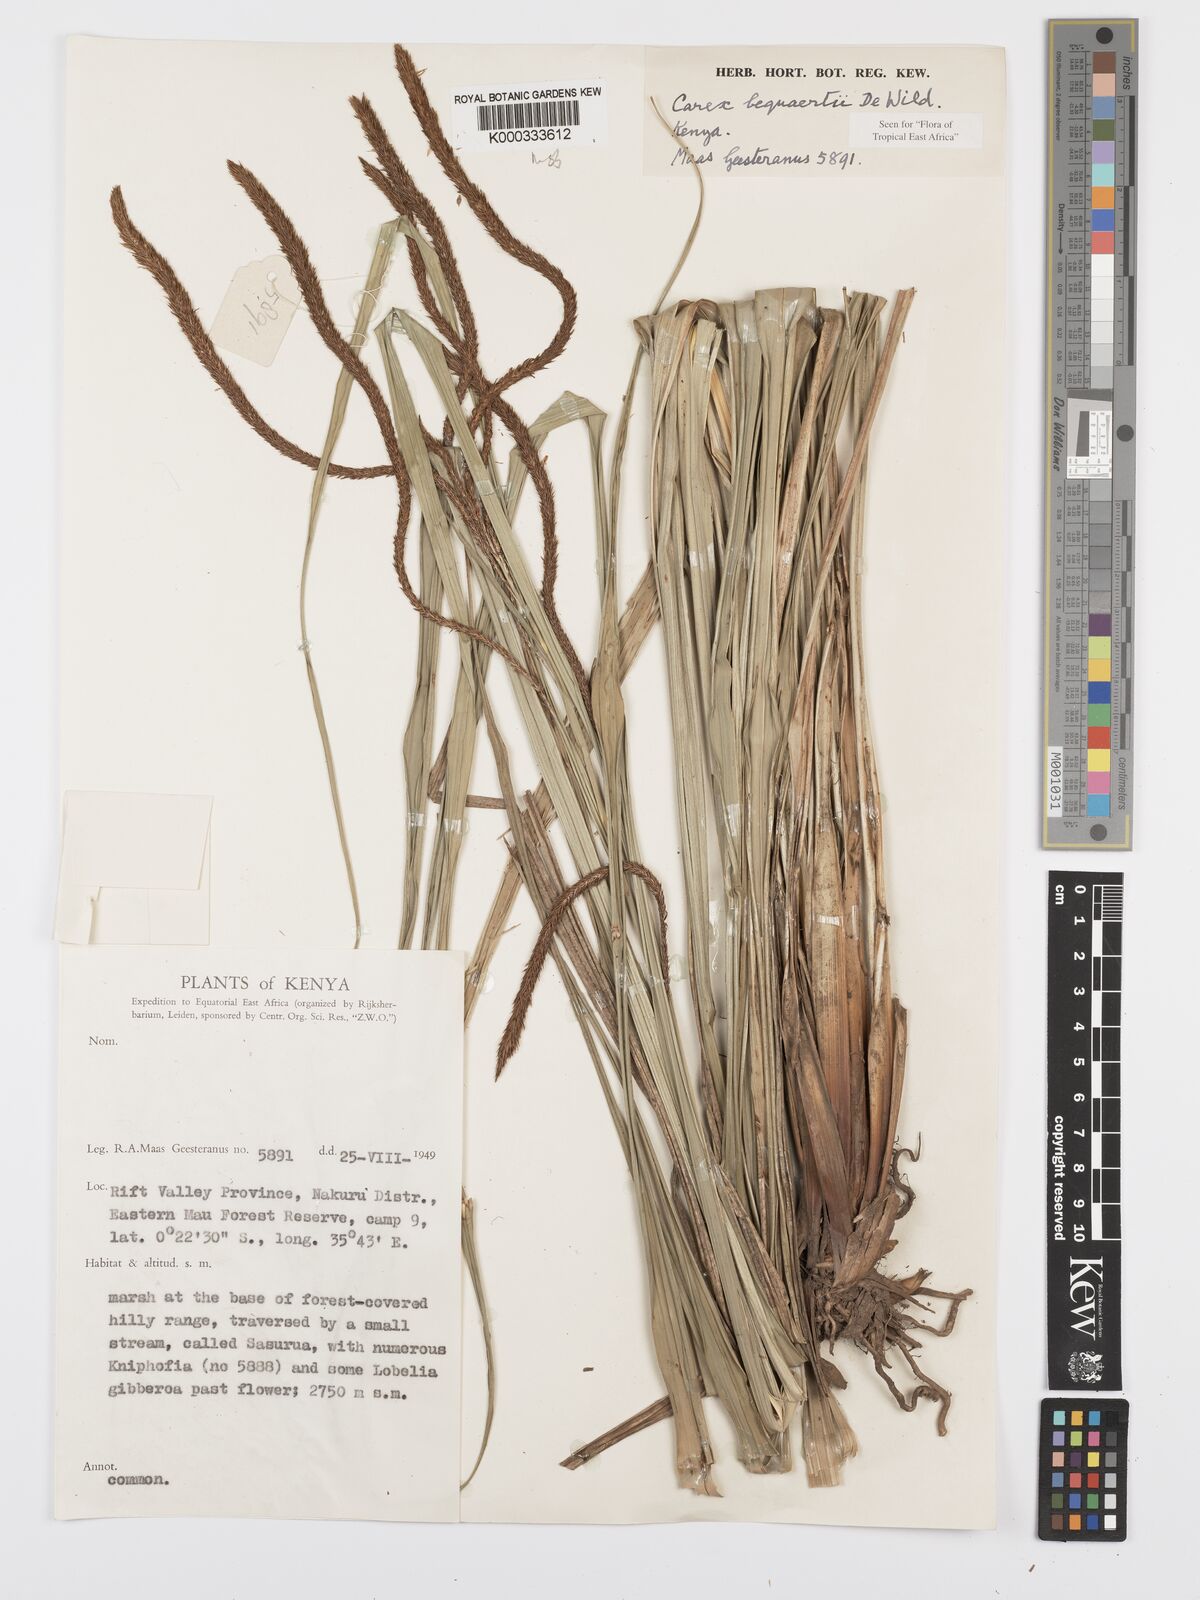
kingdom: Plantae
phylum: Tracheophyta
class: Liliopsida
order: Poales
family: Cyperaceae
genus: Carex
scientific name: Carex bequaertii
